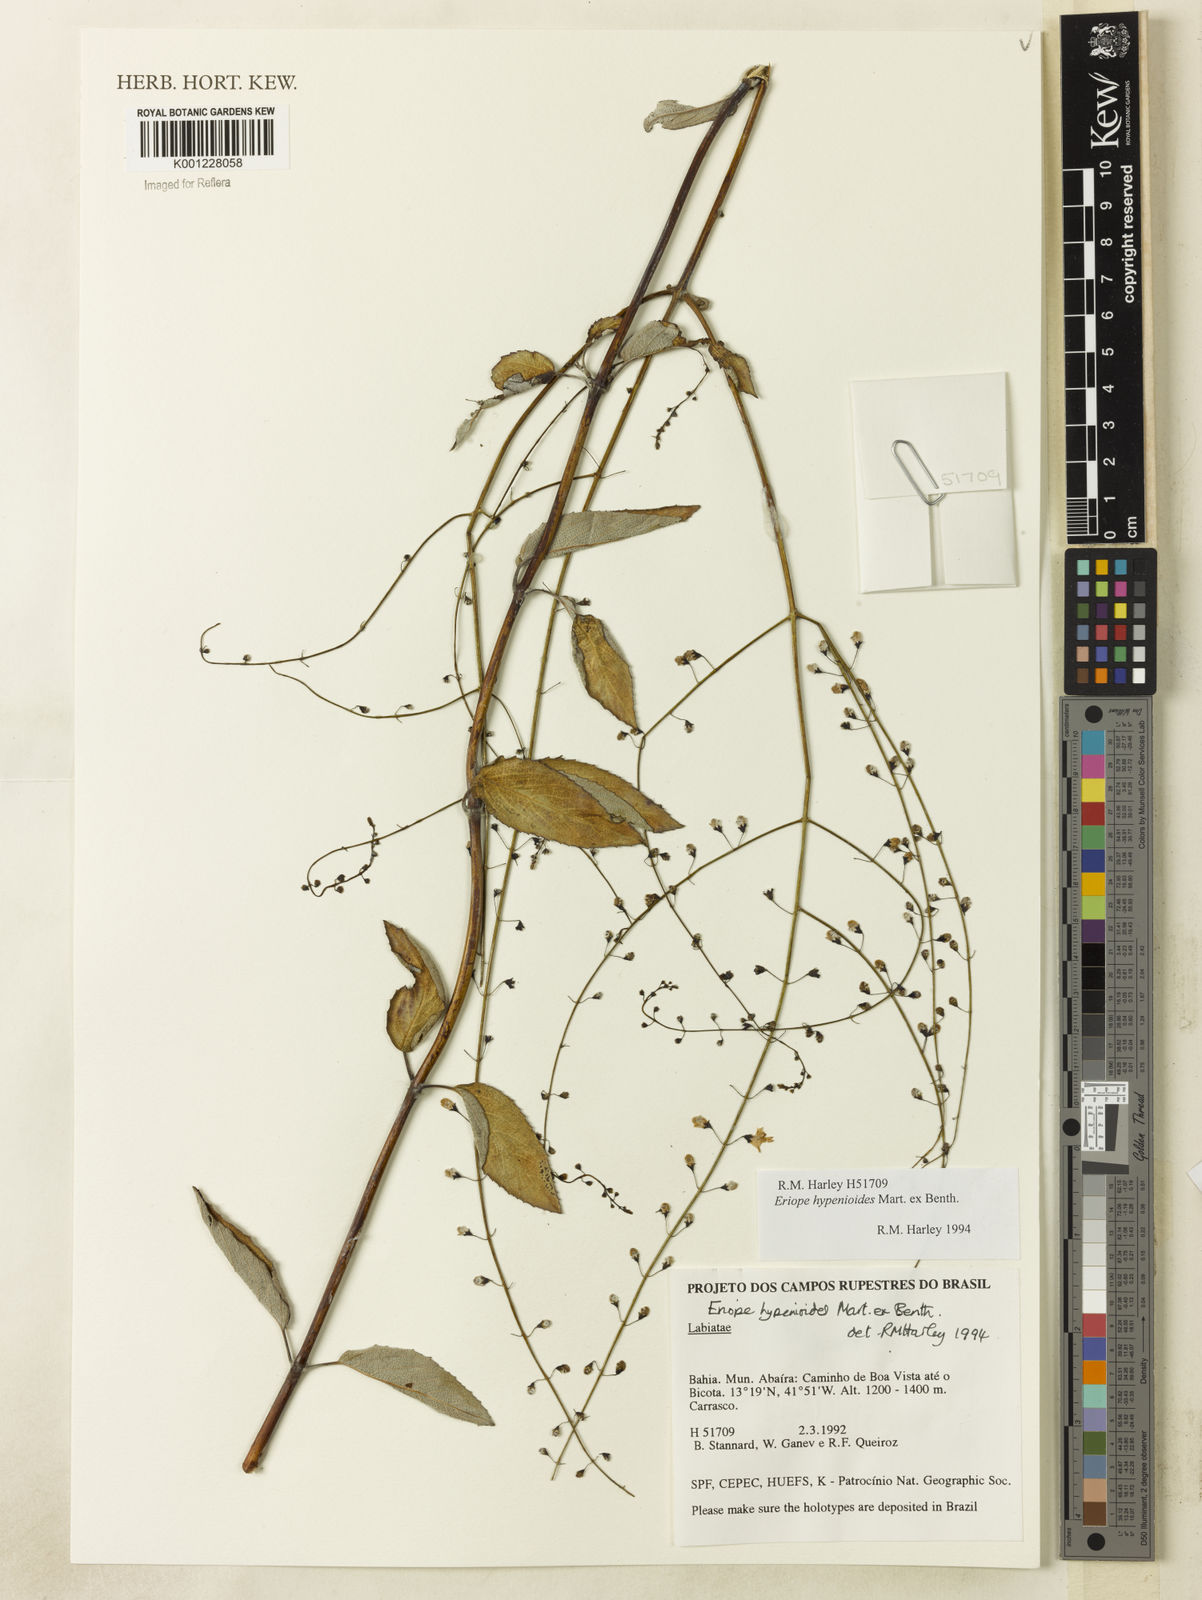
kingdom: Plantae
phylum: Tracheophyta
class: Magnoliopsida
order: Lamiales
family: Lamiaceae
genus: Eriope
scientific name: Eriope hypenioides
